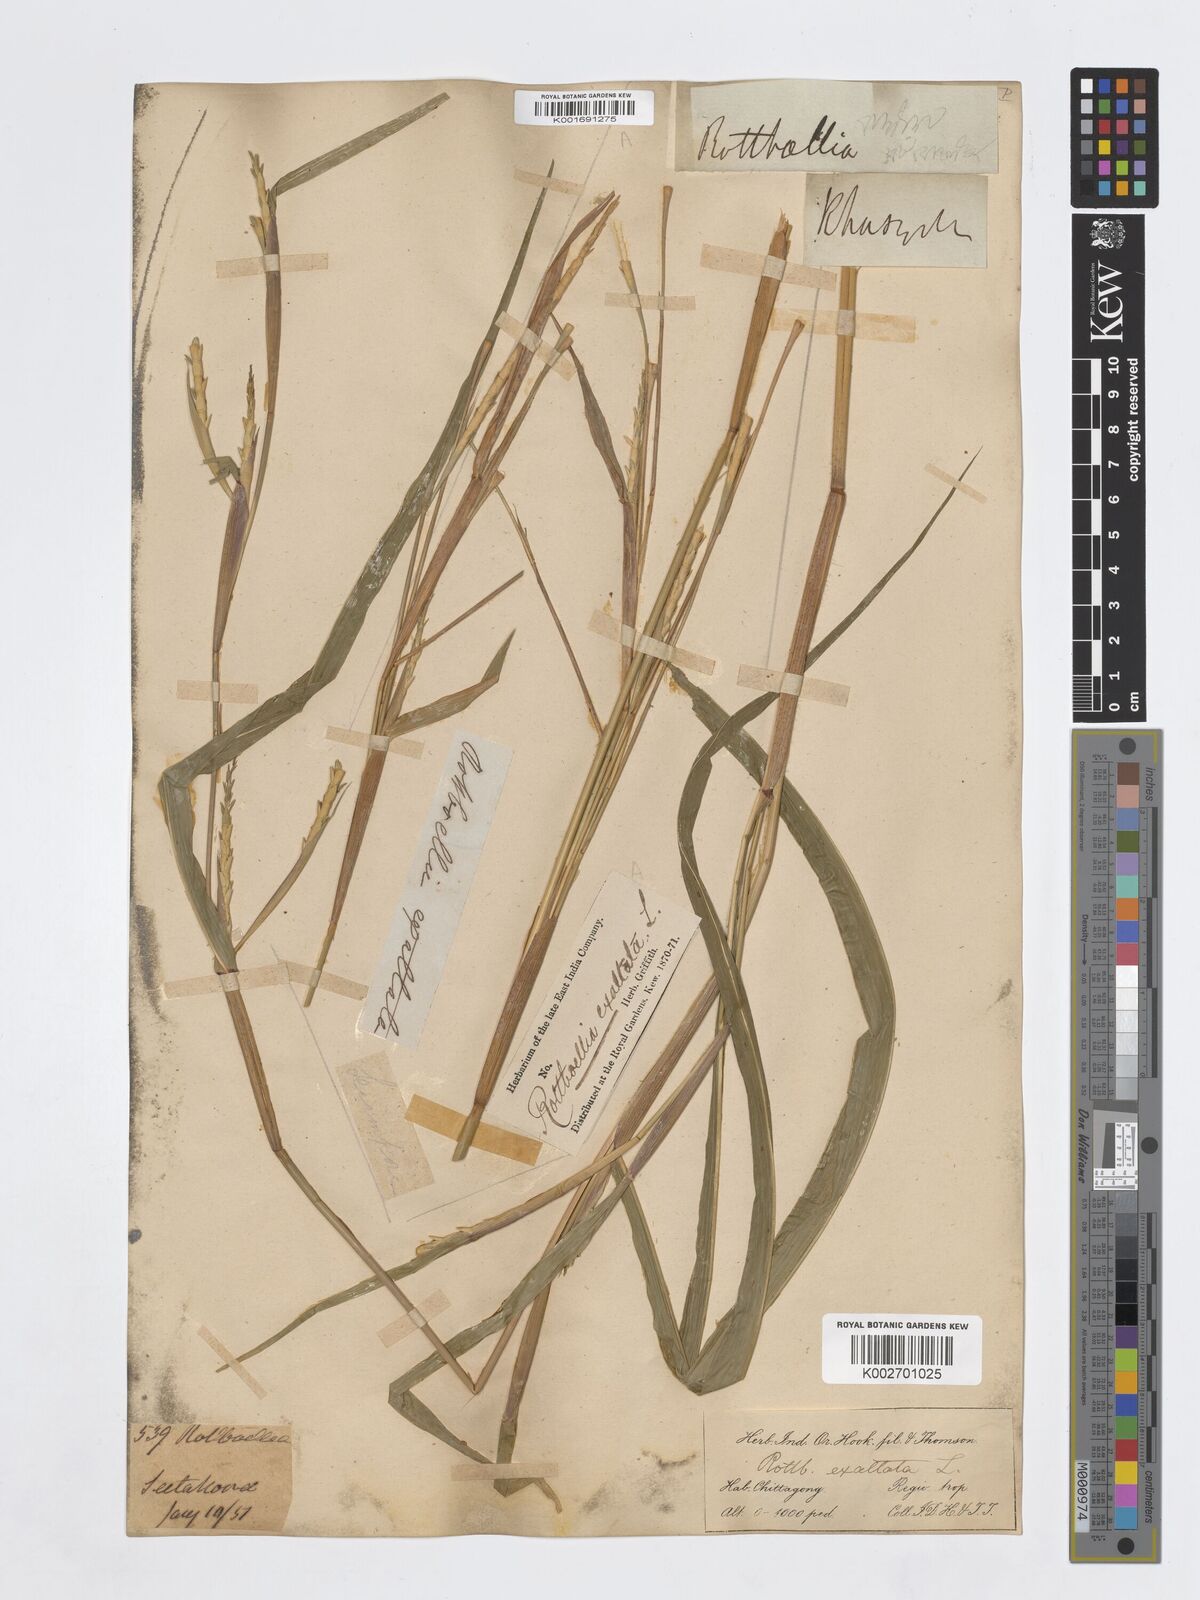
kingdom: Plantae
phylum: Tracheophyta
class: Liliopsida
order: Poales
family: Poaceae
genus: Ophiuros
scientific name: Ophiuros exaltatus
